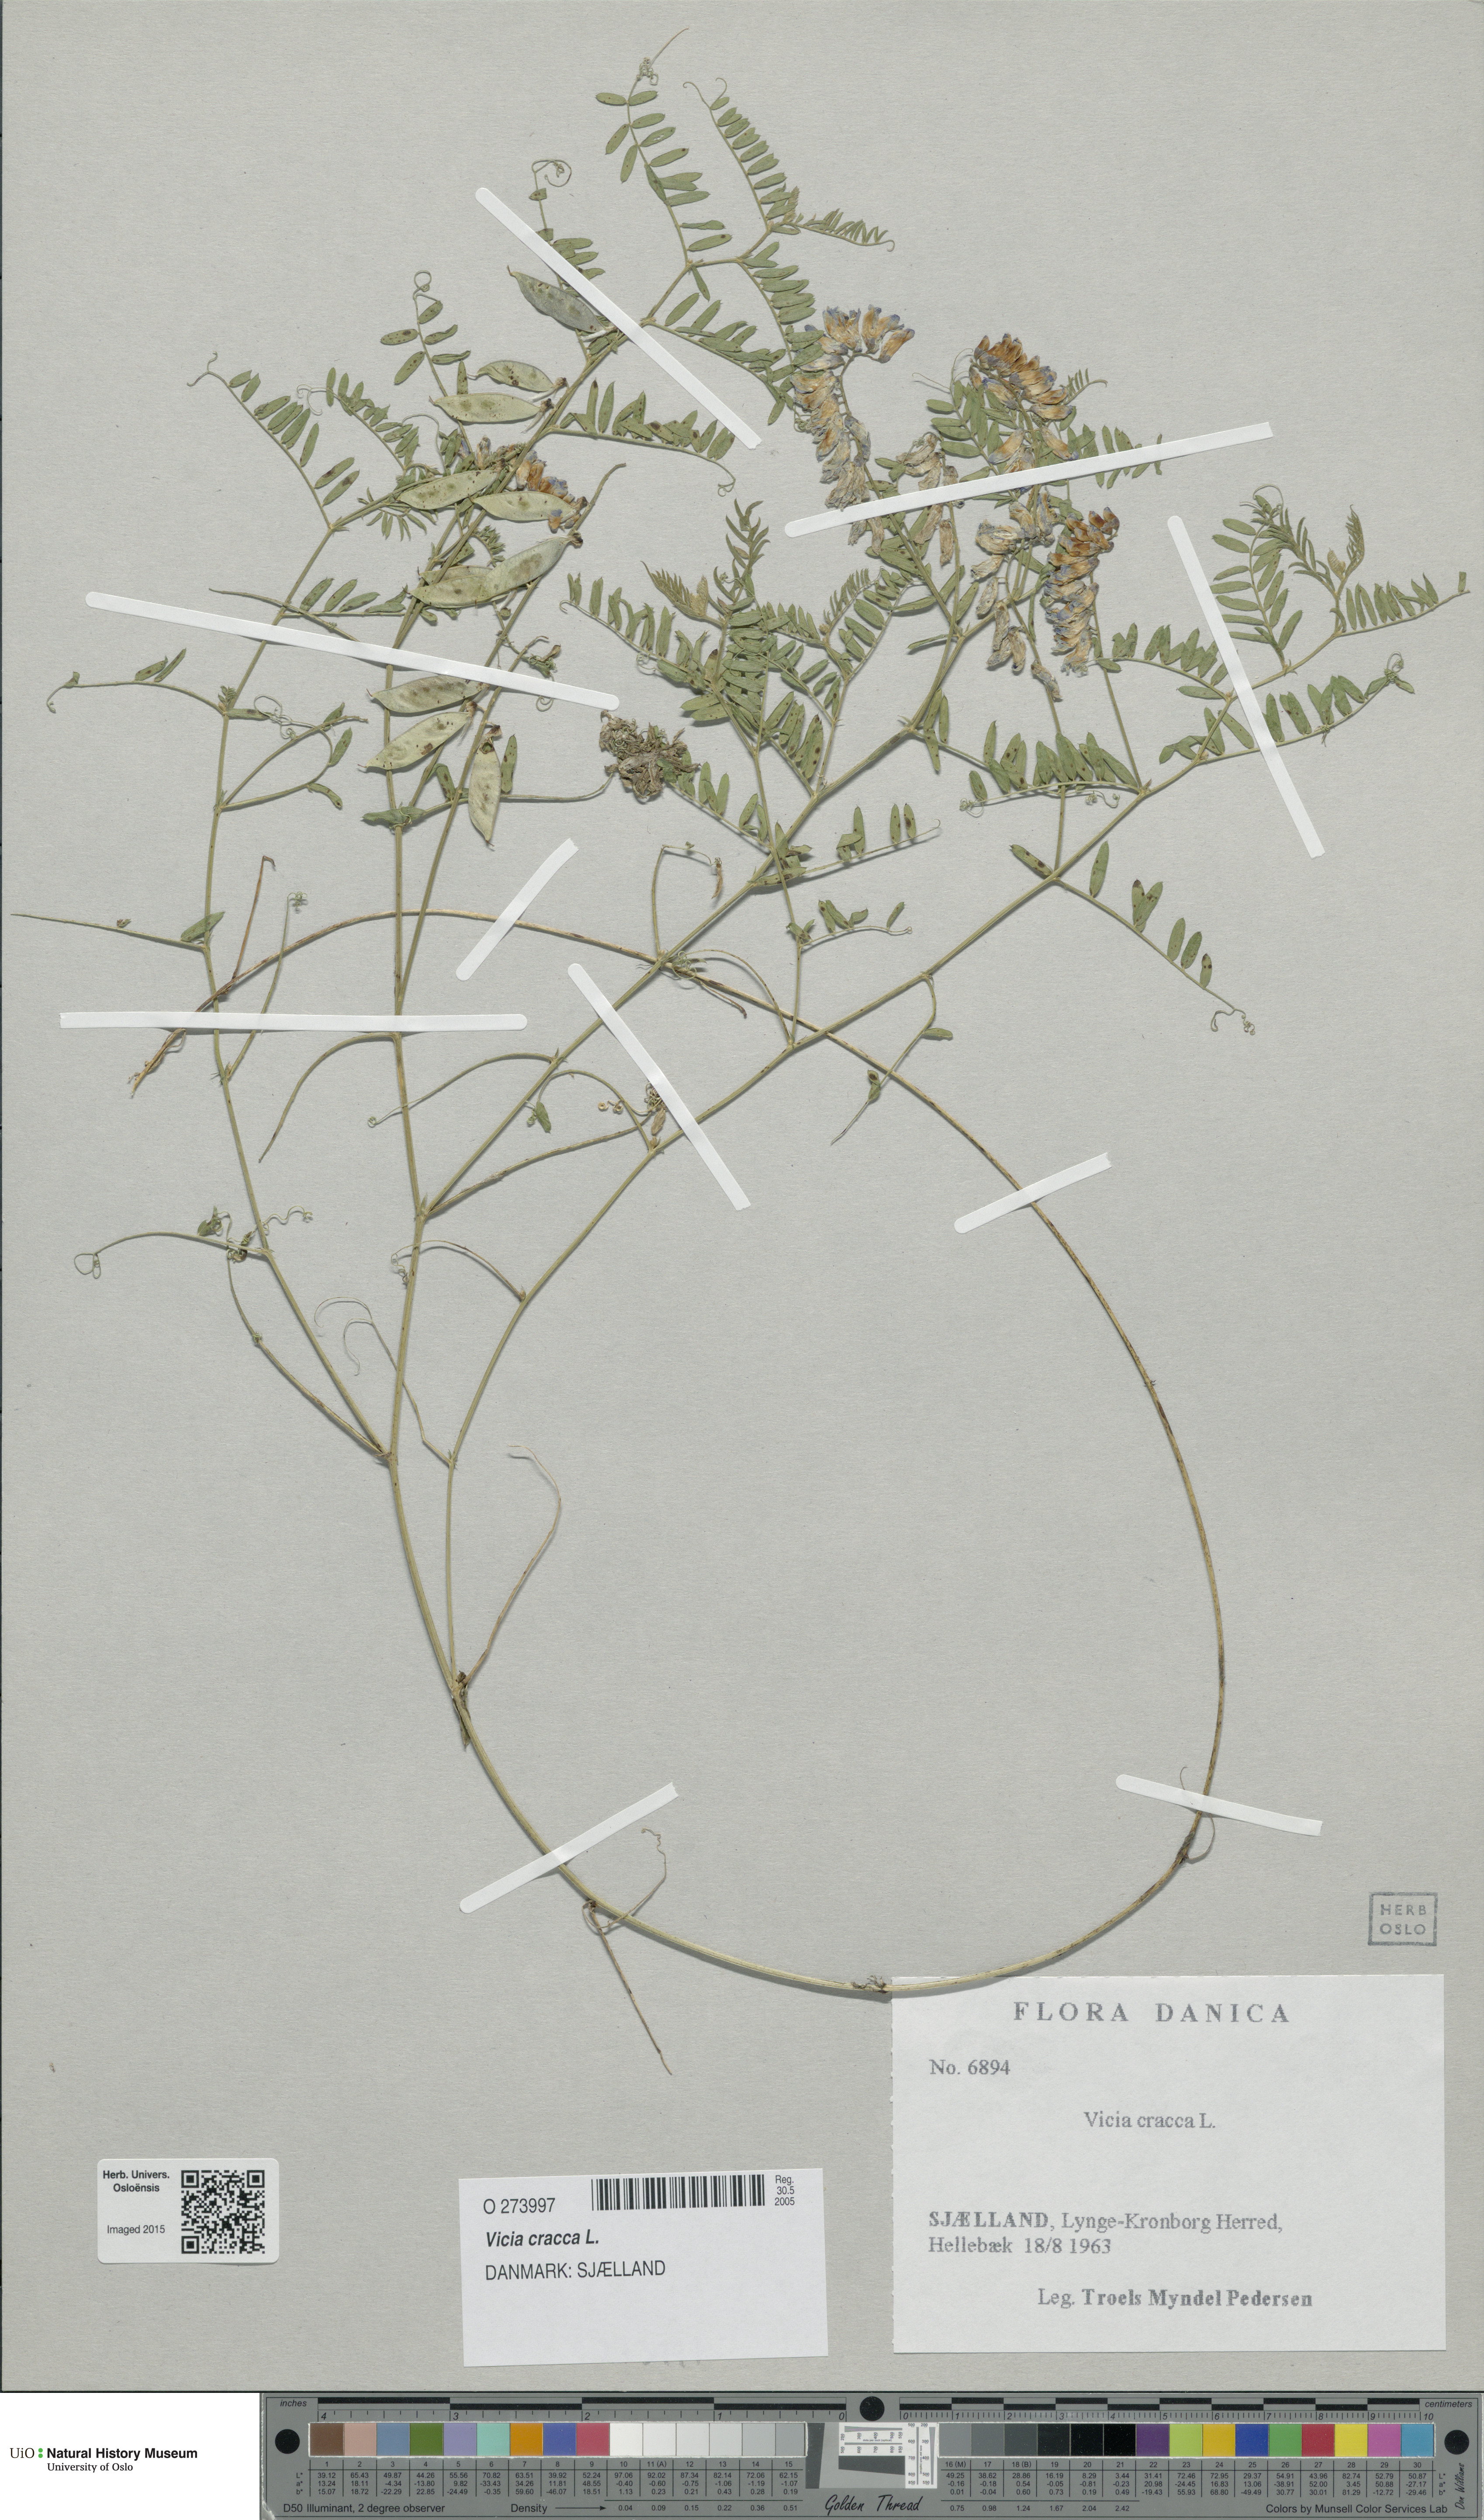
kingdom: Plantae
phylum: Tracheophyta
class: Magnoliopsida
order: Fabales
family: Fabaceae
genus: Vicia
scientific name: Vicia cracca
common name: Bird vetch
